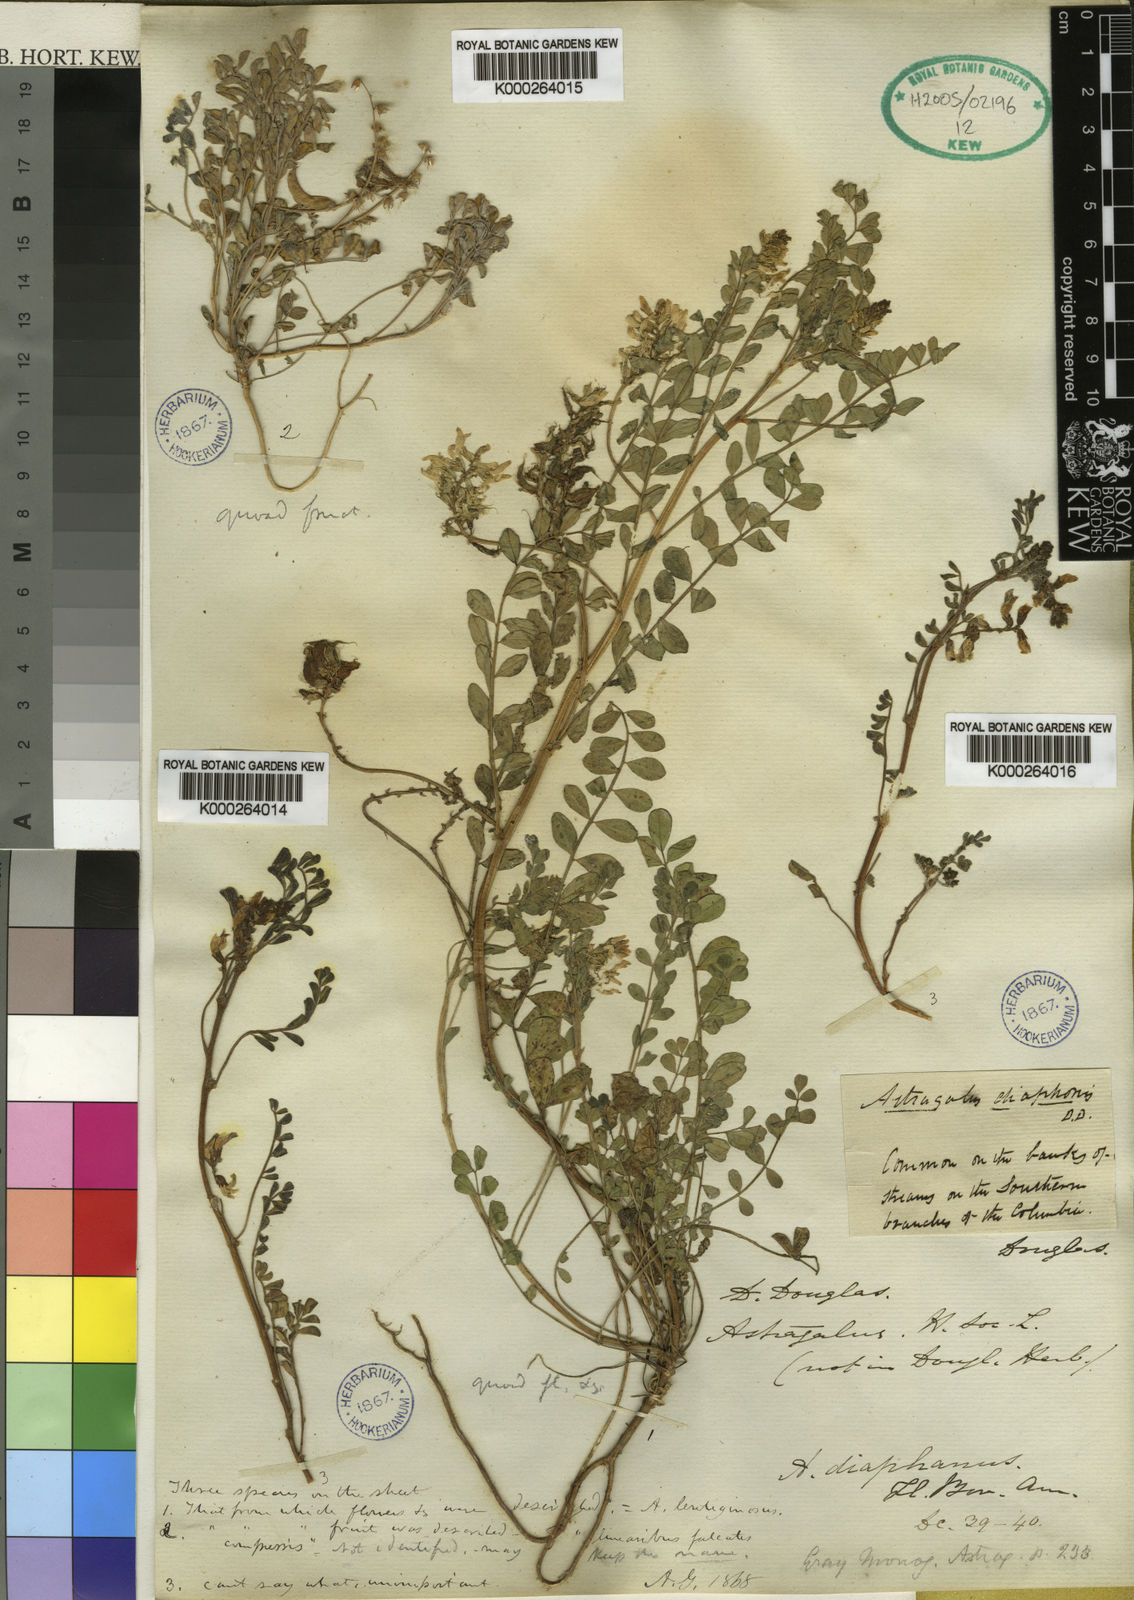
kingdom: Plantae
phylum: Tracheophyta
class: Magnoliopsida
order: Fabales
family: Fabaceae
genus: Astragalus
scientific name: Astragalus
